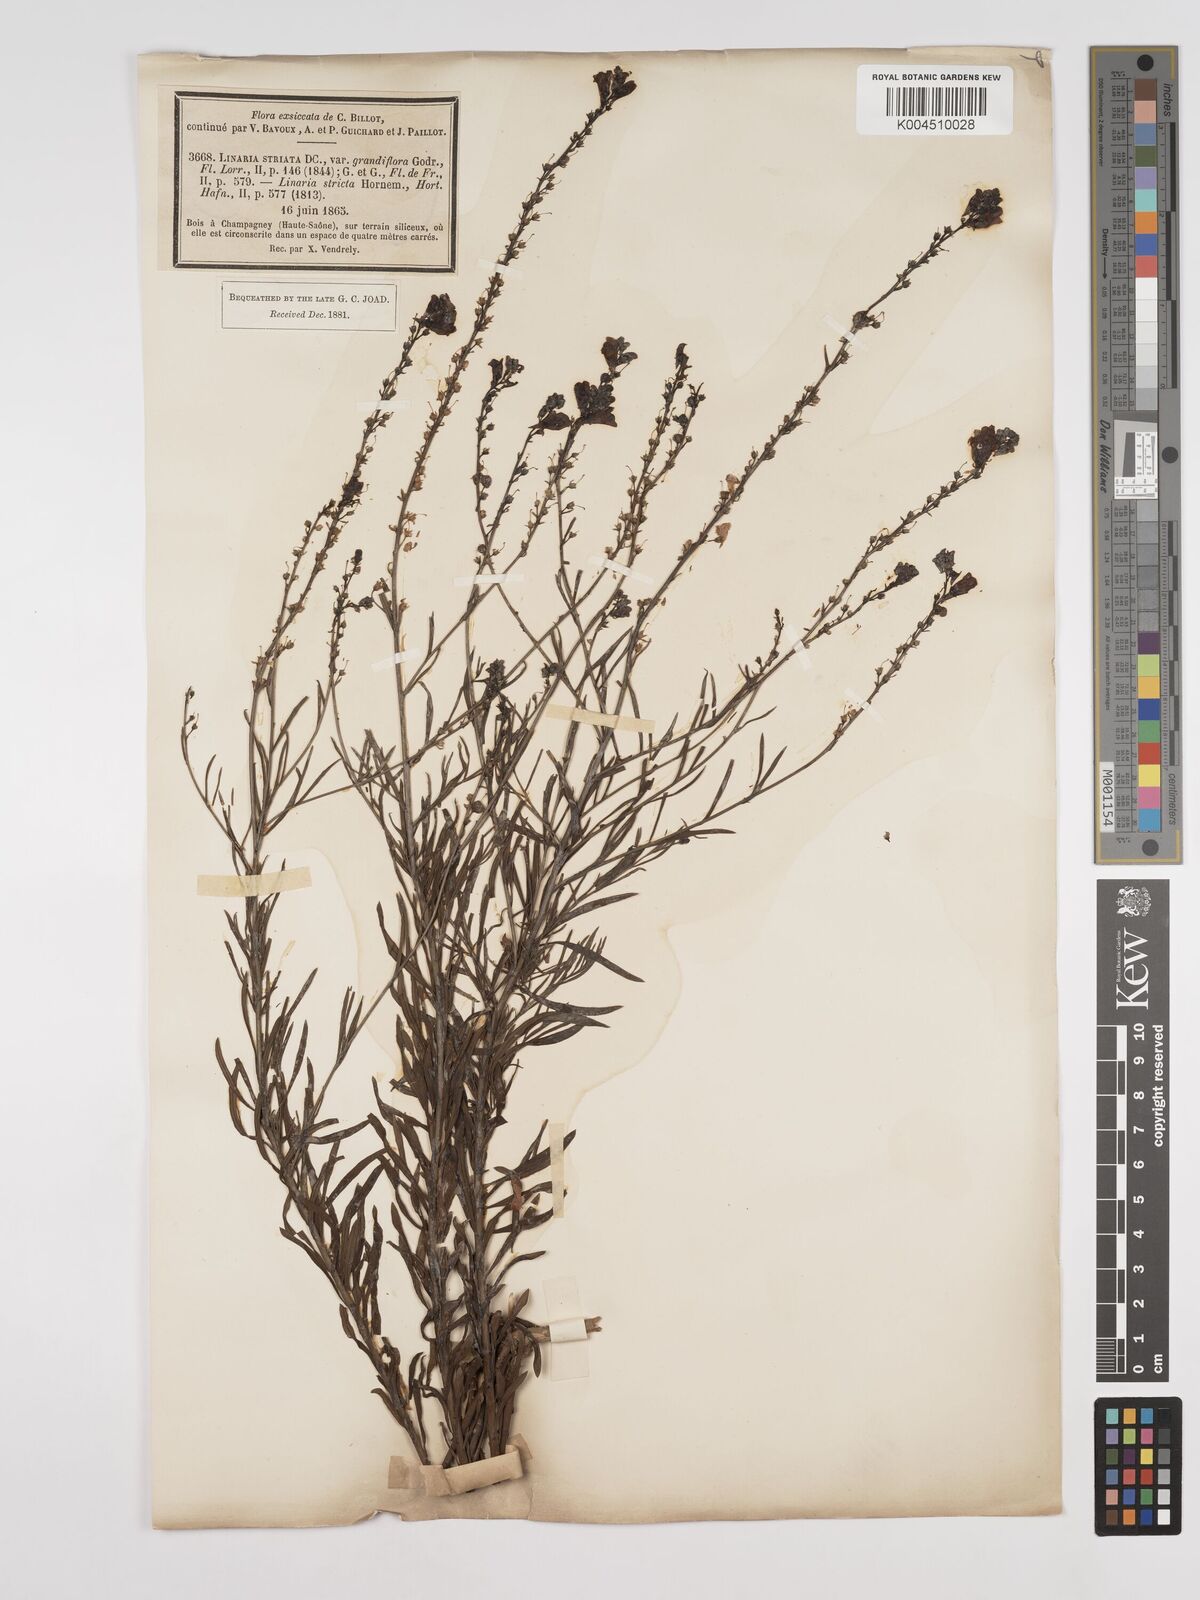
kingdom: Plantae
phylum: Tracheophyta
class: Magnoliopsida
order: Lamiales
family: Plantaginaceae
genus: Linaria
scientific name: Linaria repens
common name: Pale toadflax
